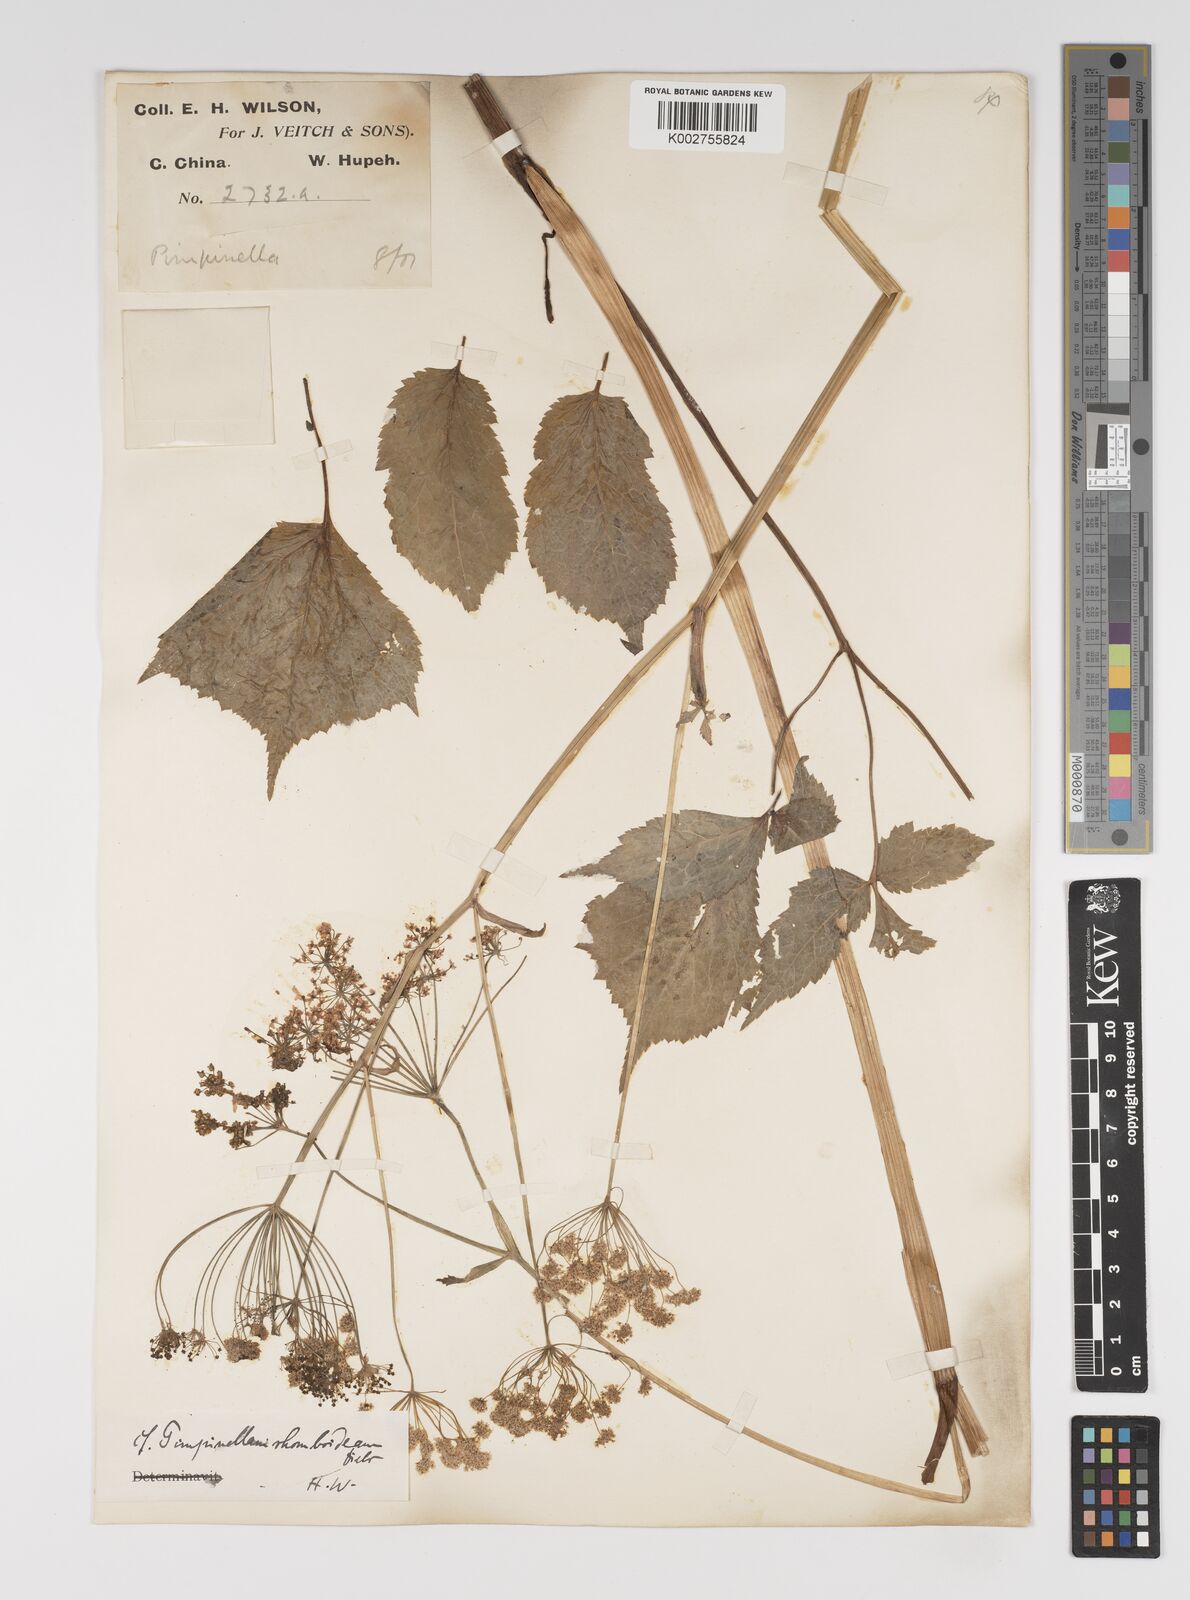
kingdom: Plantae
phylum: Tracheophyta
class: Magnoliopsida
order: Apiales
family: Apiaceae
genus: Pimpinella
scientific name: Pimpinella
